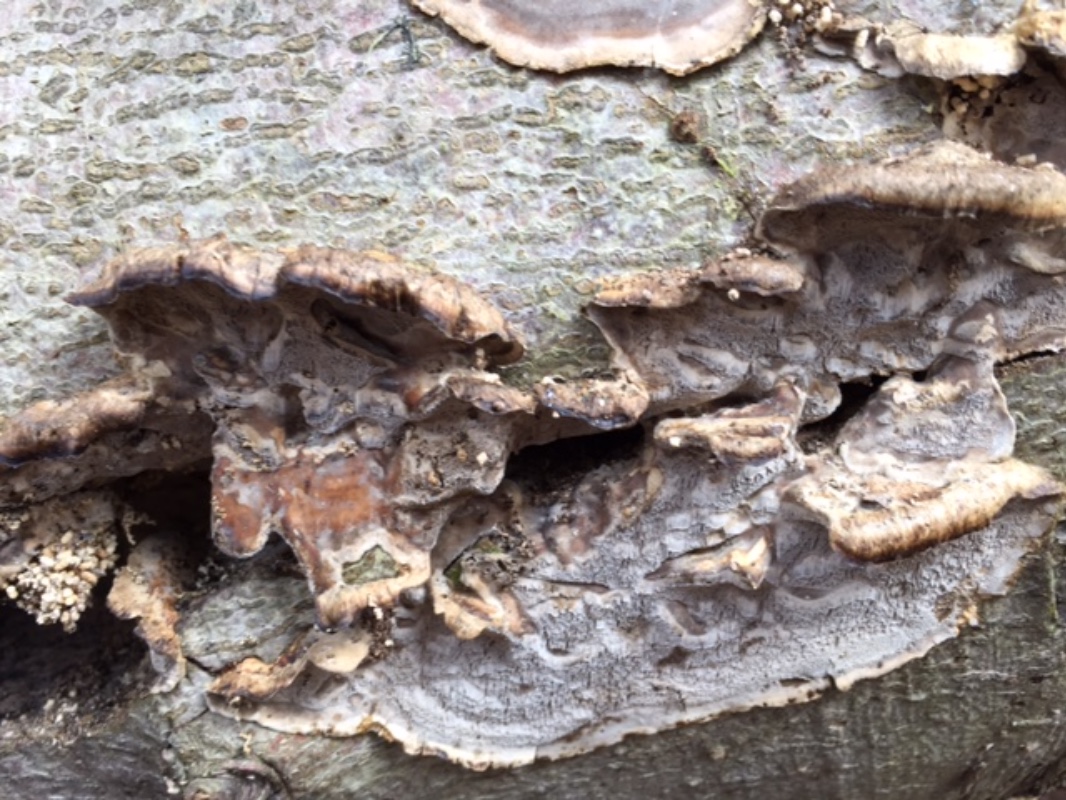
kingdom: Fungi
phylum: Basidiomycota
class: Agaricomycetes
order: Polyporales
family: Phanerochaetaceae
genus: Bjerkandera
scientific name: Bjerkandera adusta
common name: sveden sodporesvamp
